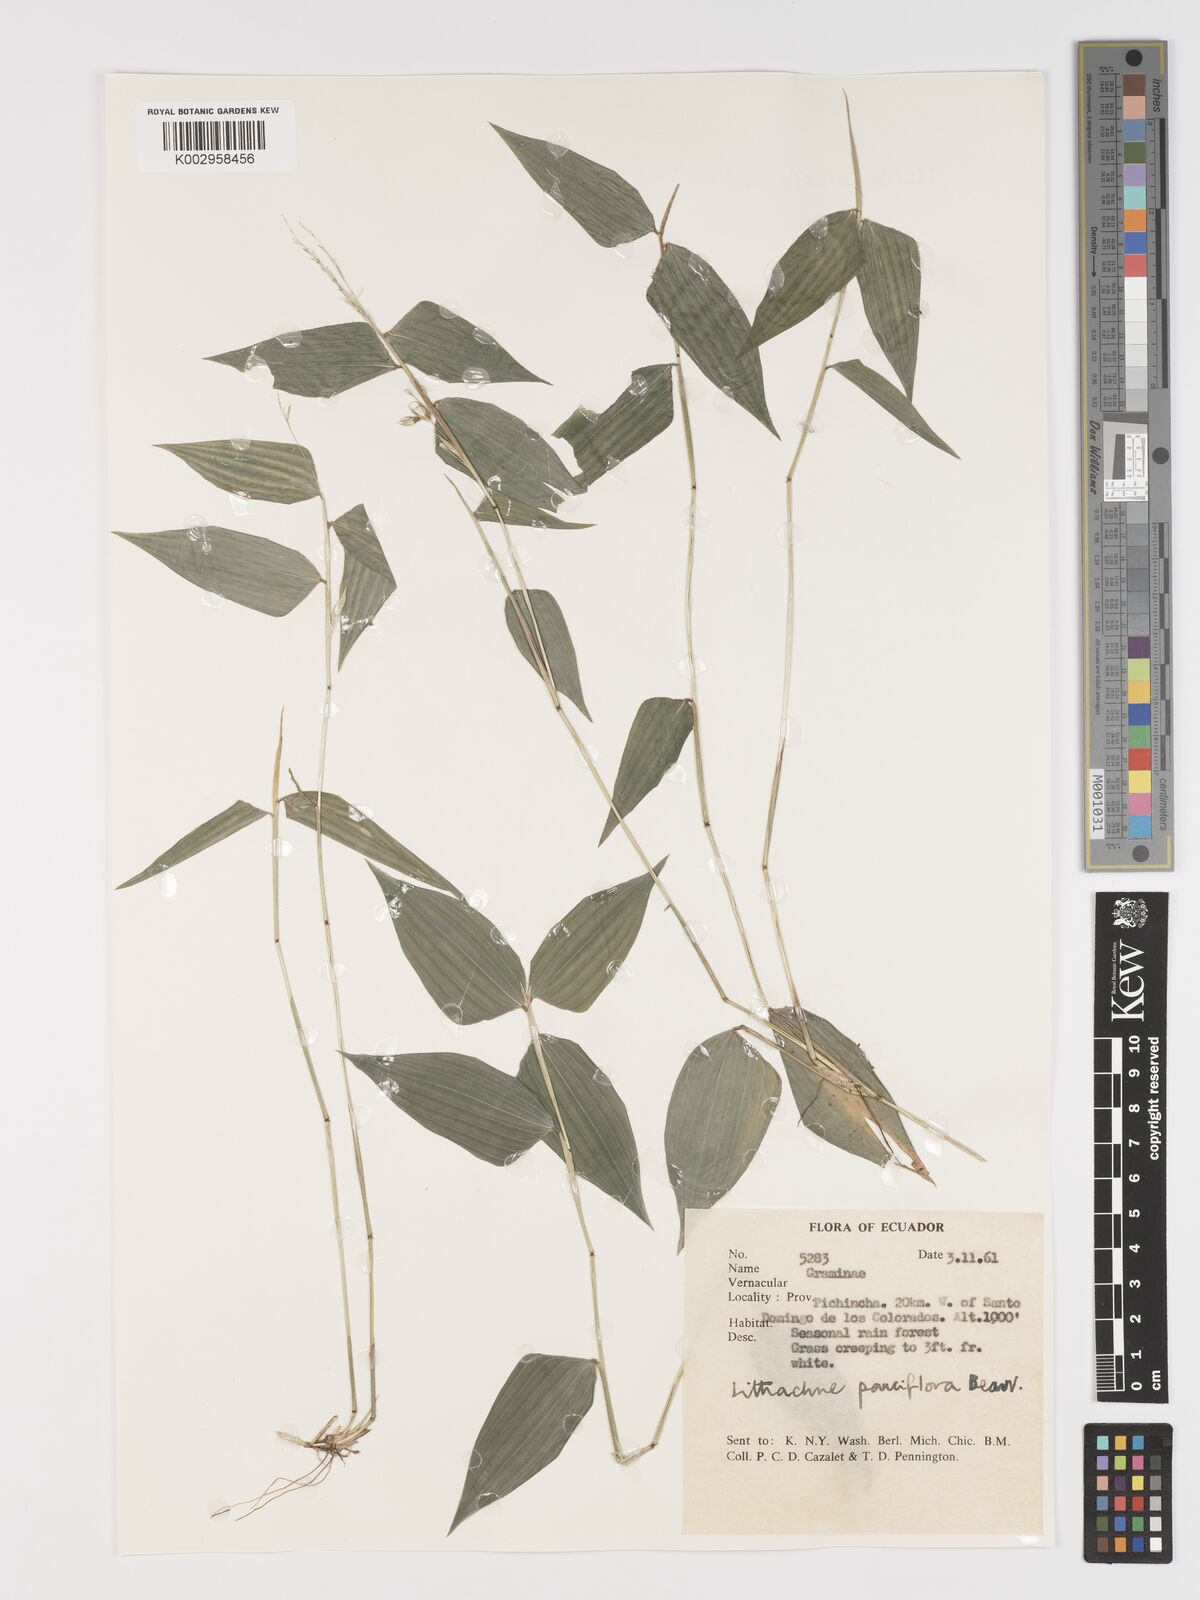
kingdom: Plantae
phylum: Tracheophyta
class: Liliopsida
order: Poales
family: Poaceae
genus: Lithachne
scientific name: Lithachne pauciflora
